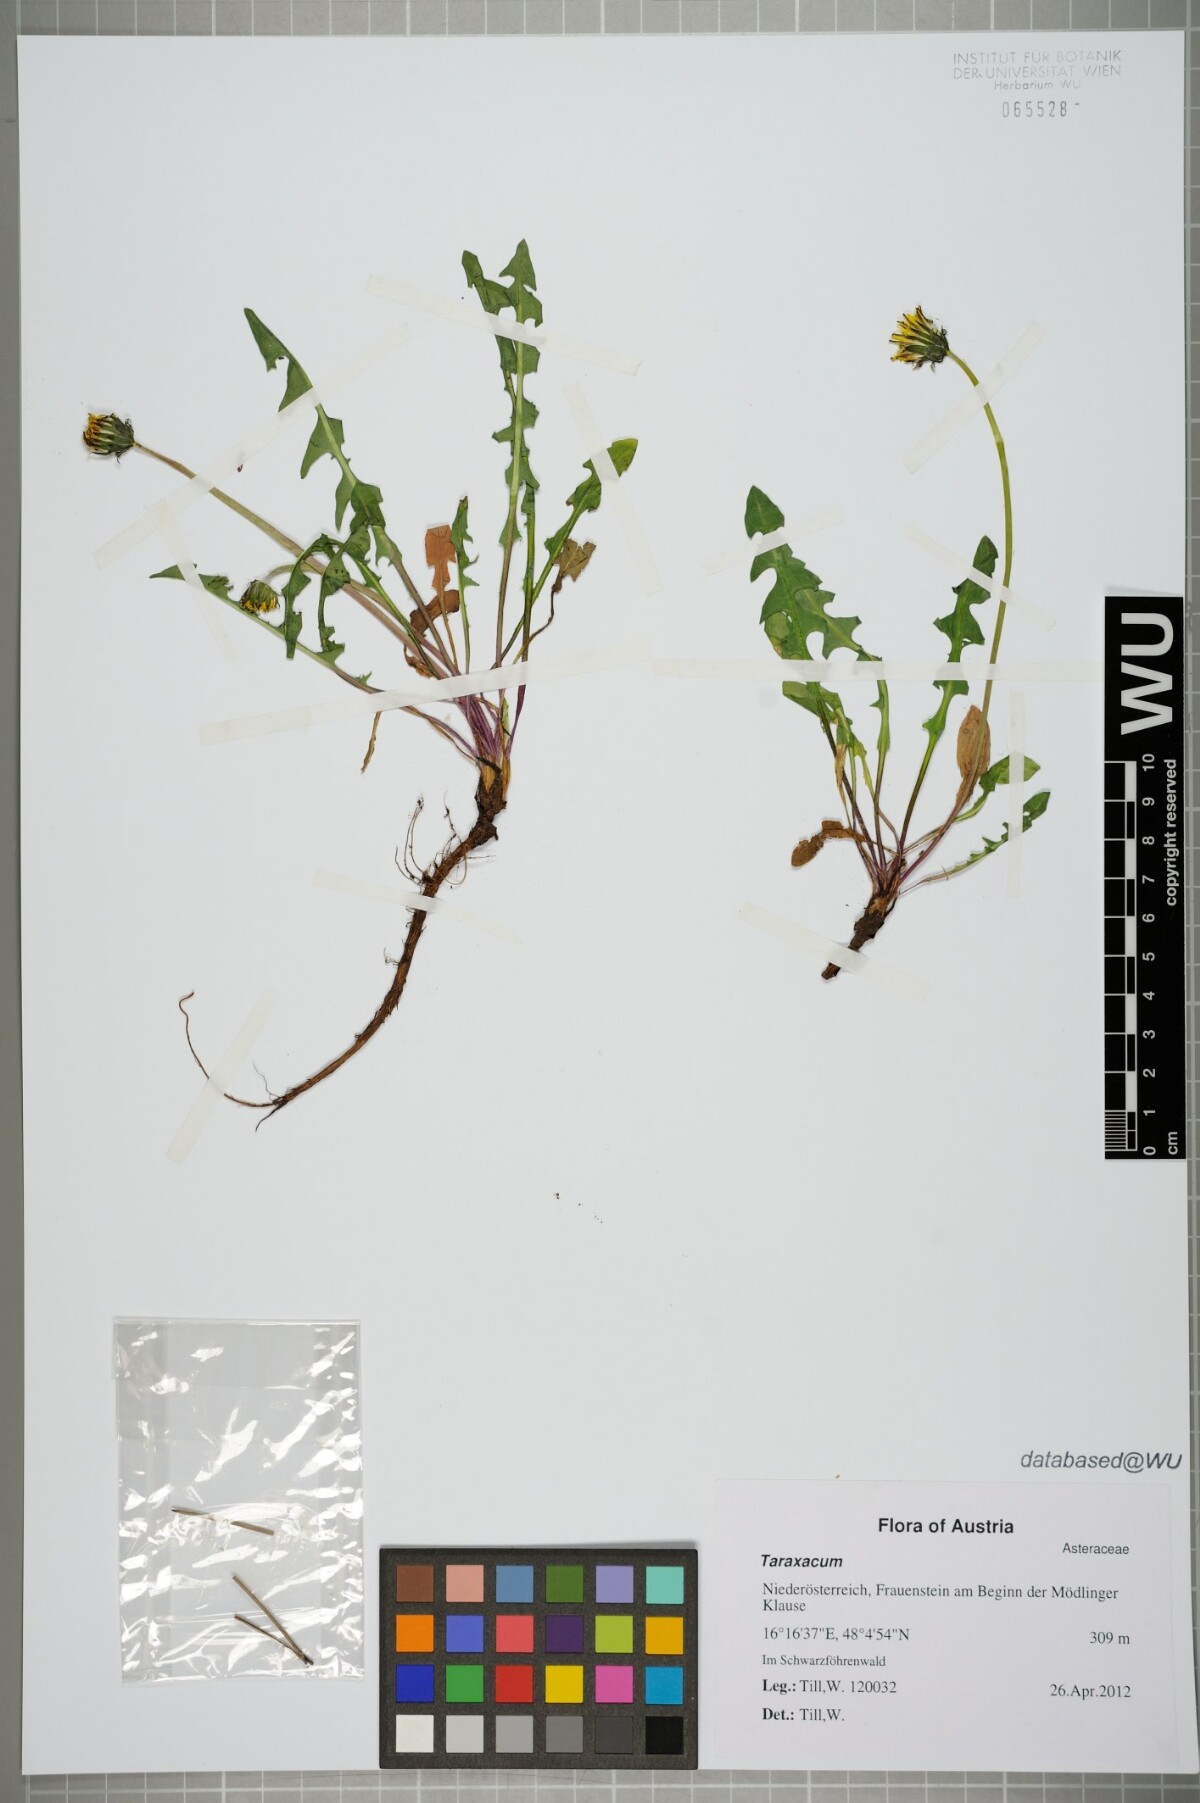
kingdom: Plantae
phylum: Tracheophyta
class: Magnoliopsida
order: Asterales
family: Asteraceae
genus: Taraxacum
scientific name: Taraxacum
